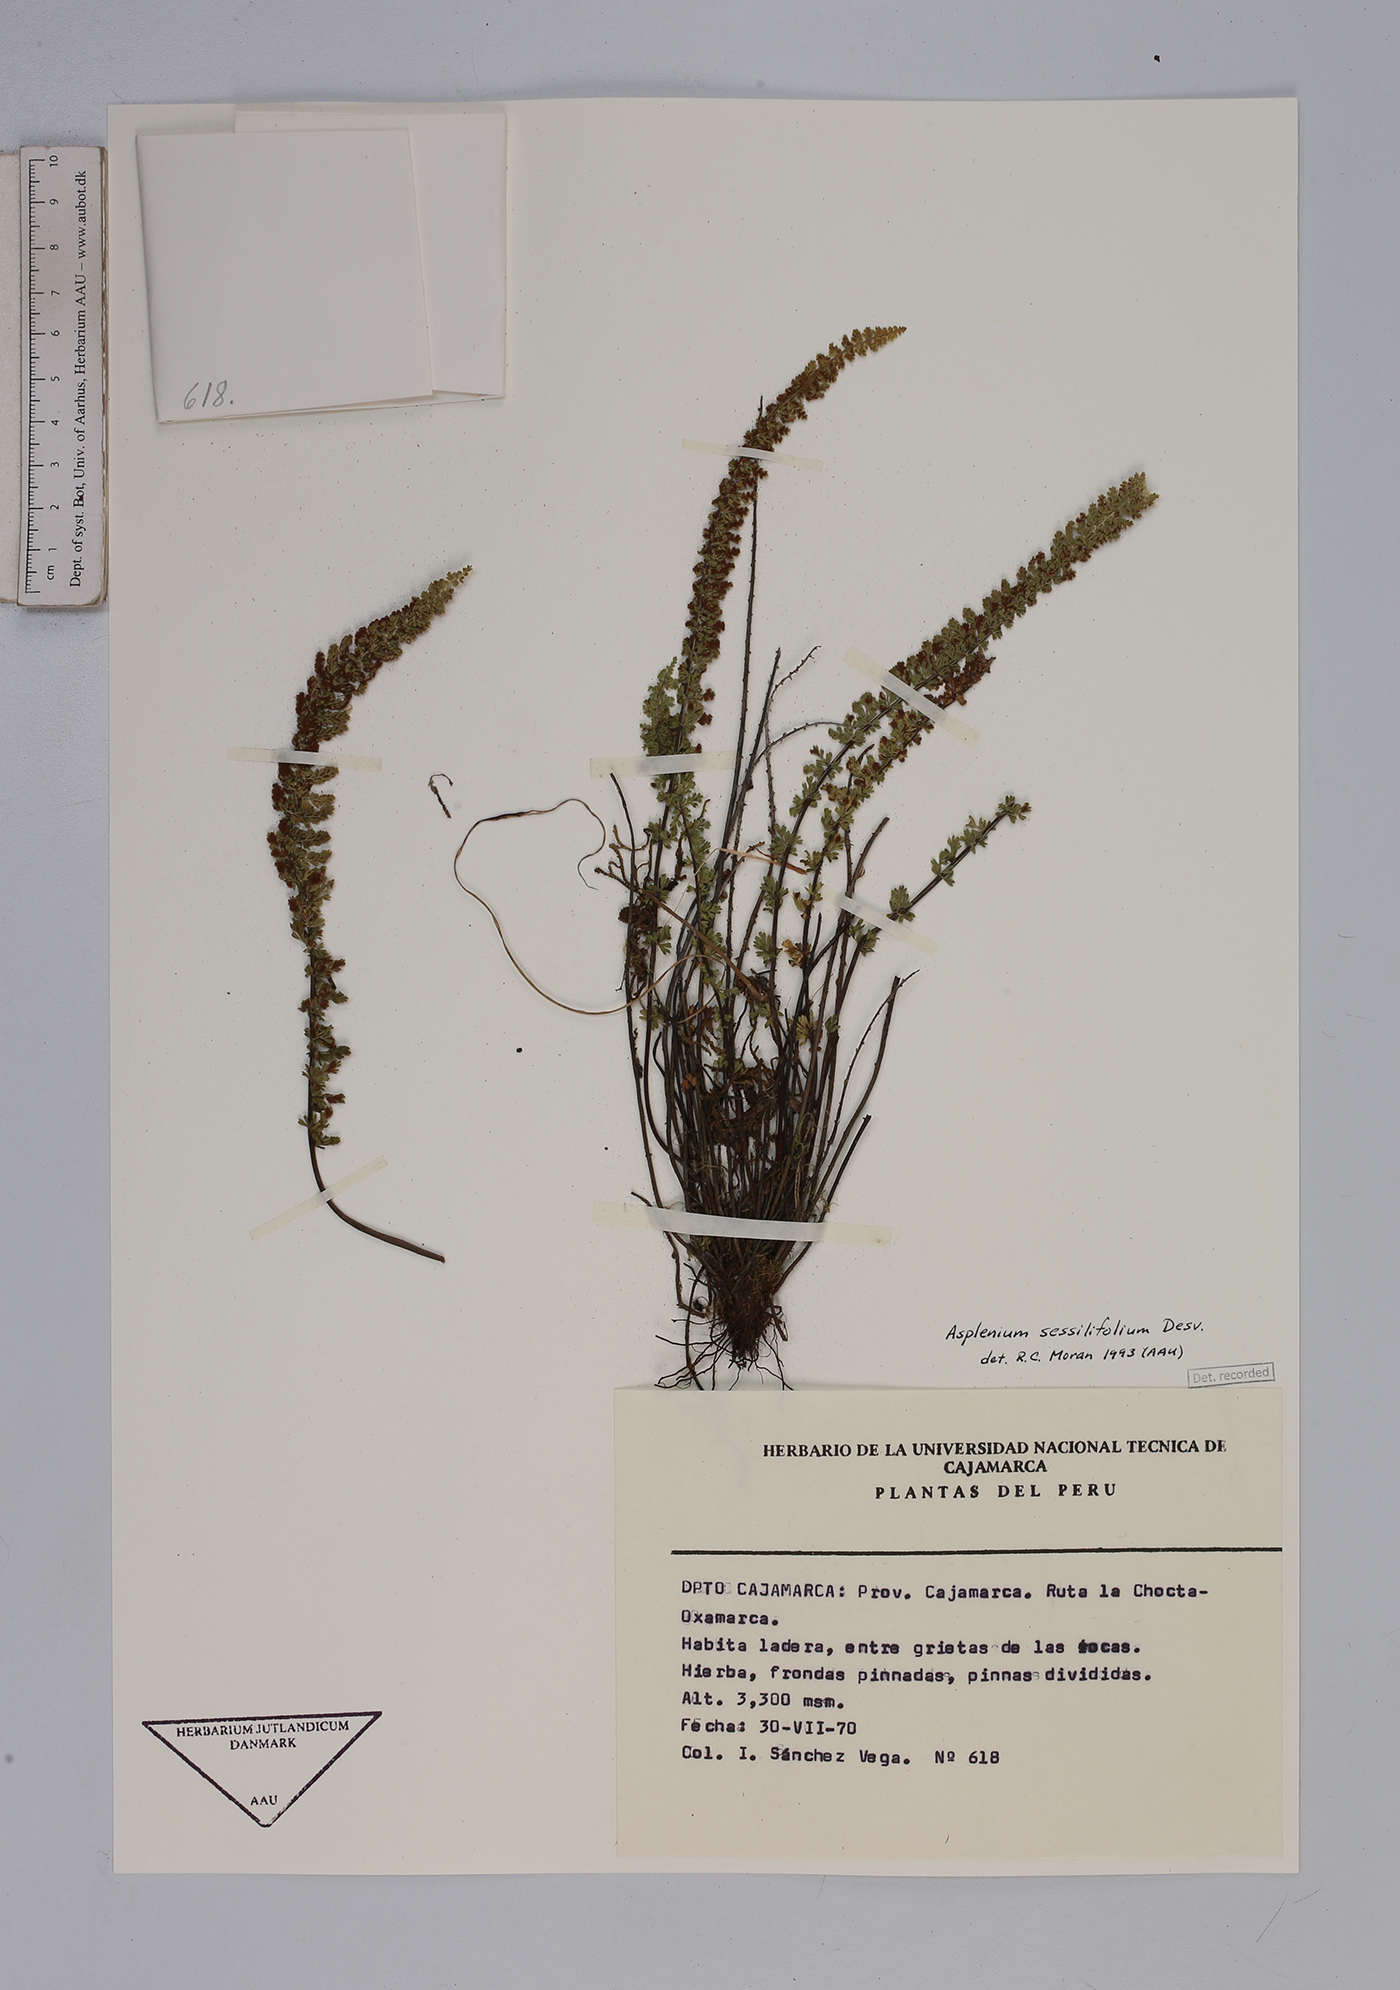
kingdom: Plantae
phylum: Tracheophyta
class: Polypodiopsida
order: Polypodiales
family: Aspleniaceae
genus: Asplenium
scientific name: Asplenium sessilifolium
